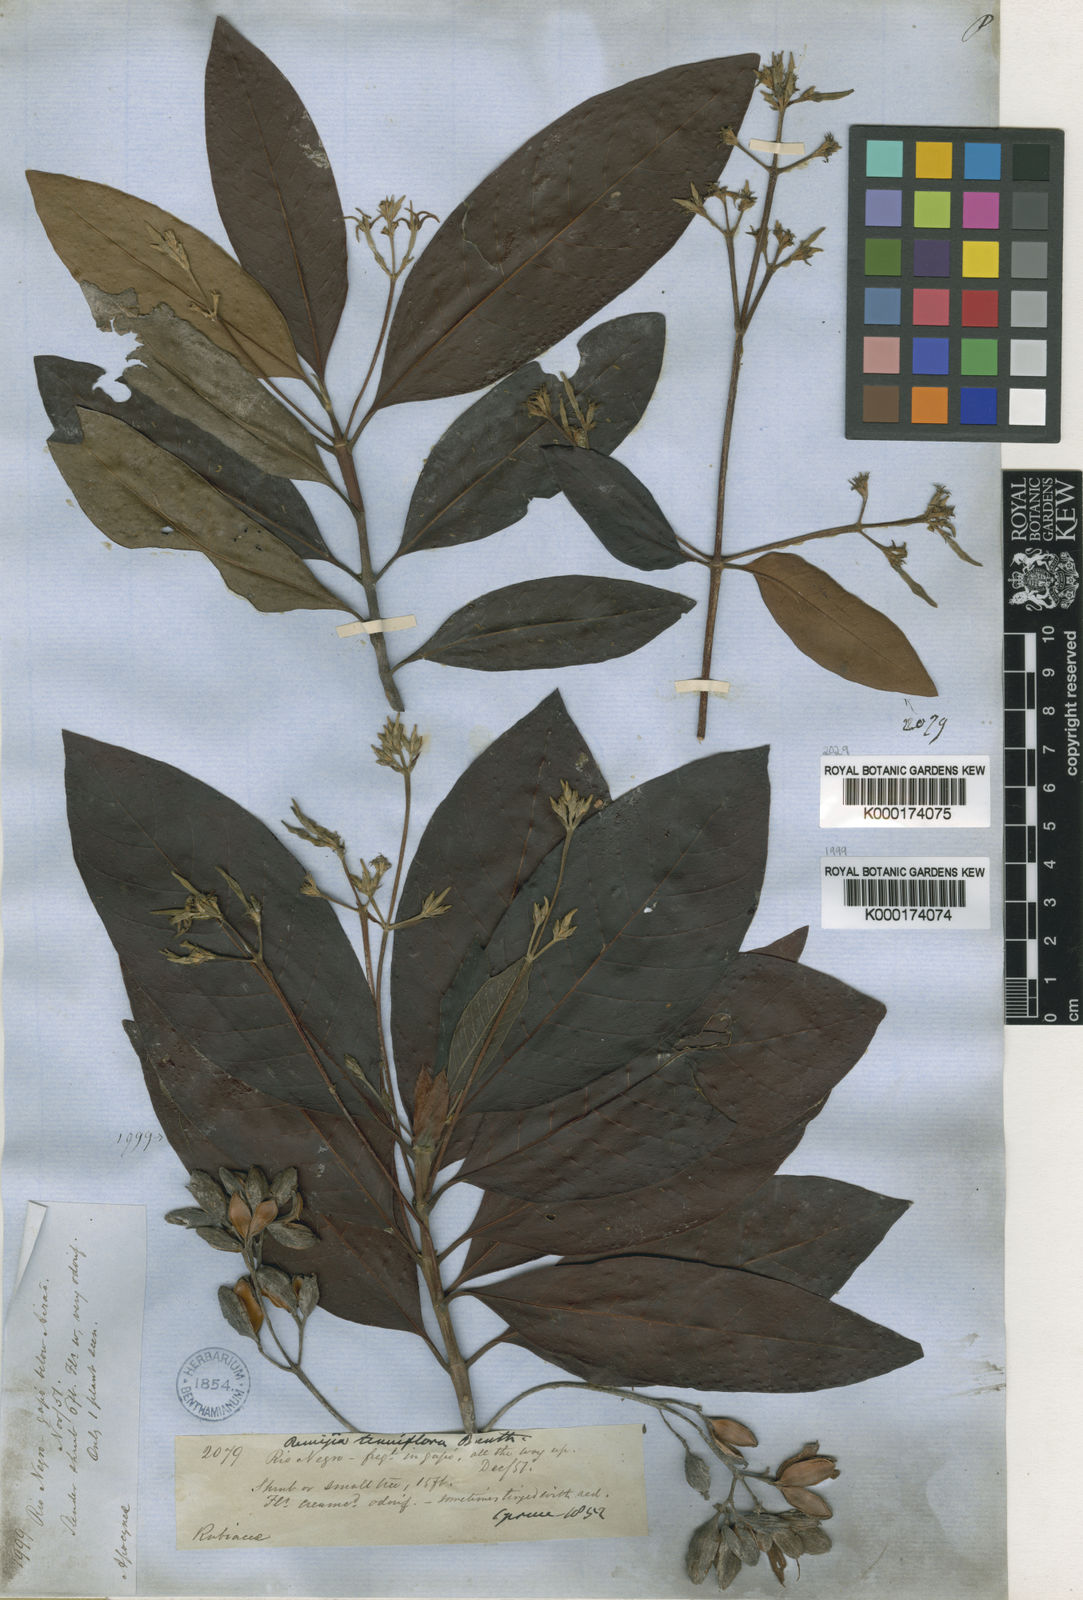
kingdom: Plantae
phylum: Tracheophyta
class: Magnoliopsida
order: Gentianales
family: Rubiaceae
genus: Remijia
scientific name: Remijia tenuiflora
